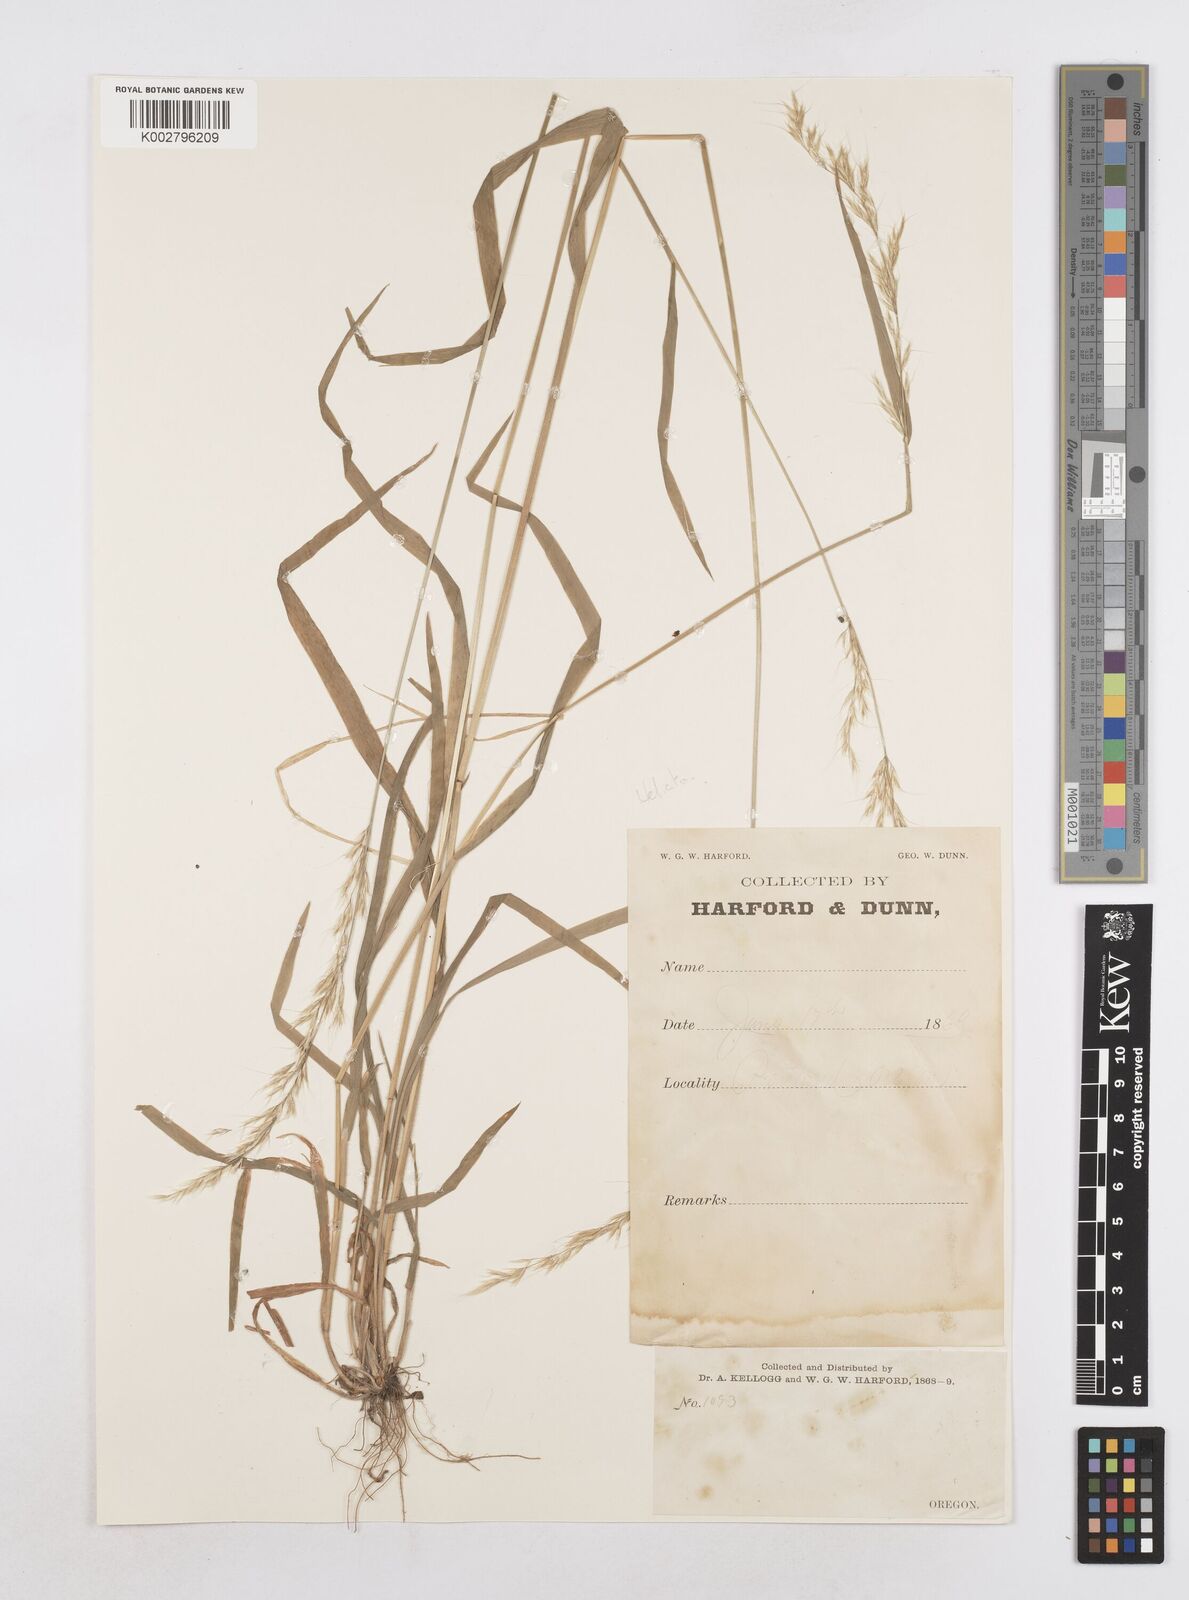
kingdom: Plantae
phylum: Tracheophyta
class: Liliopsida
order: Poales
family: Poaceae
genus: Helictotrichon
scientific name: Helictotrichon
